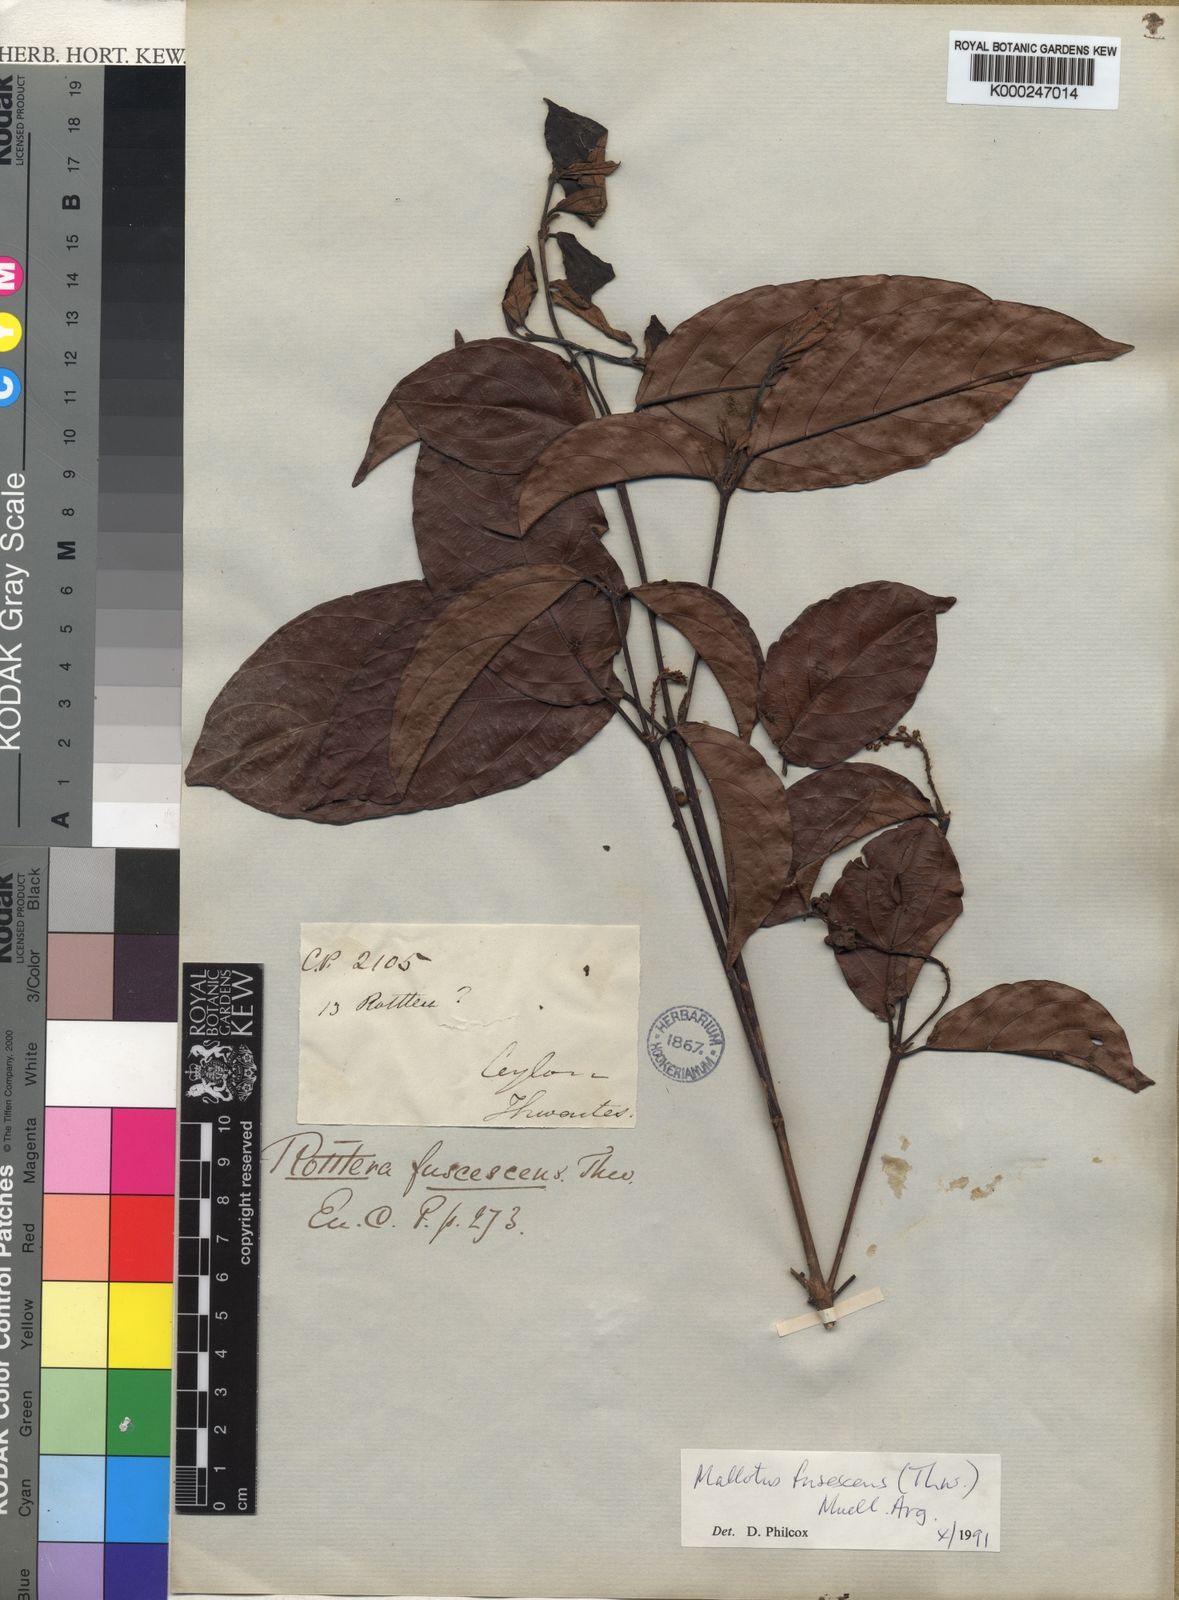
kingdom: Plantae
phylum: Tracheophyta
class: Magnoliopsida
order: Malpighiales
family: Euphorbiaceae
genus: Mallotus
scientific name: Mallotus
